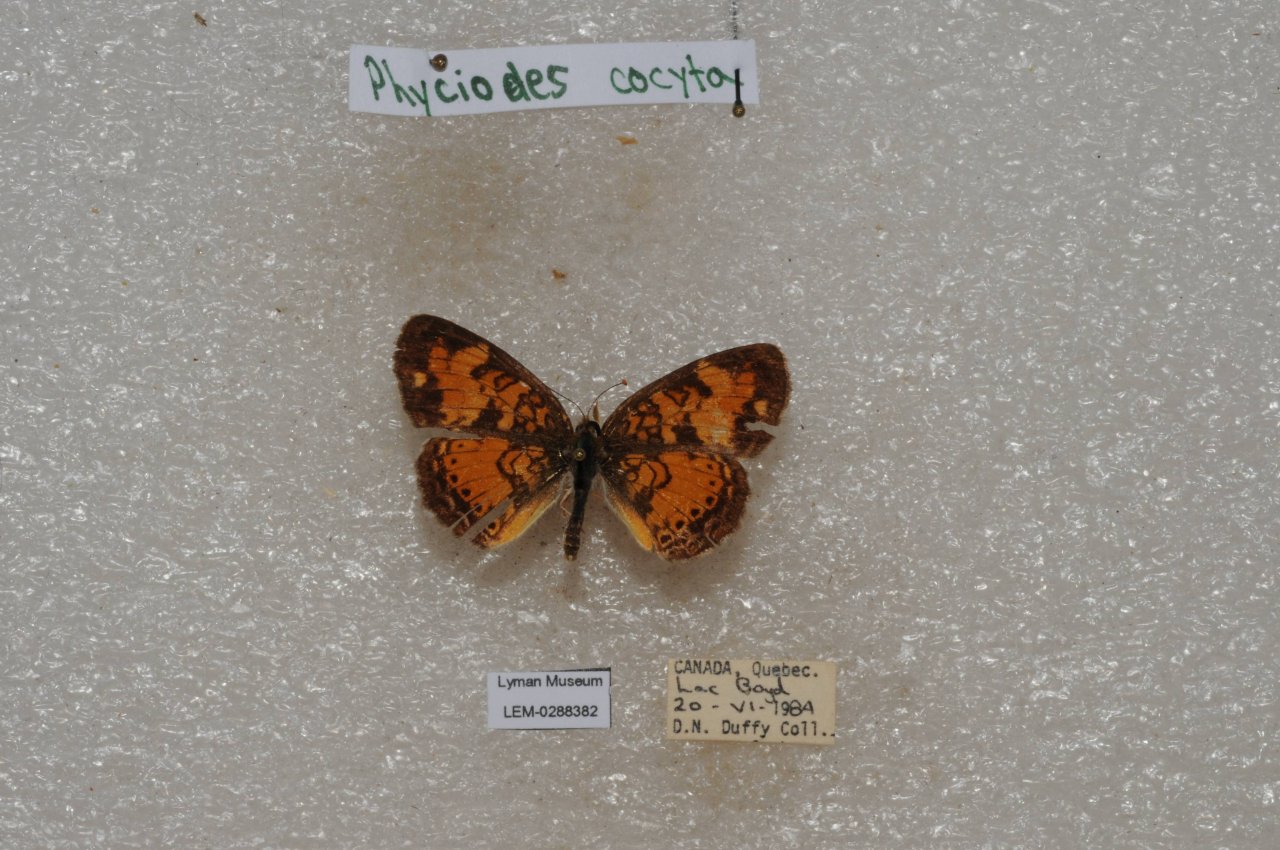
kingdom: Animalia
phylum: Arthropoda
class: Insecta
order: Lepidoptera
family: Nymphalidae
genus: Phyciodes
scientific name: Phyciodes tharos
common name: Northern Crescent
